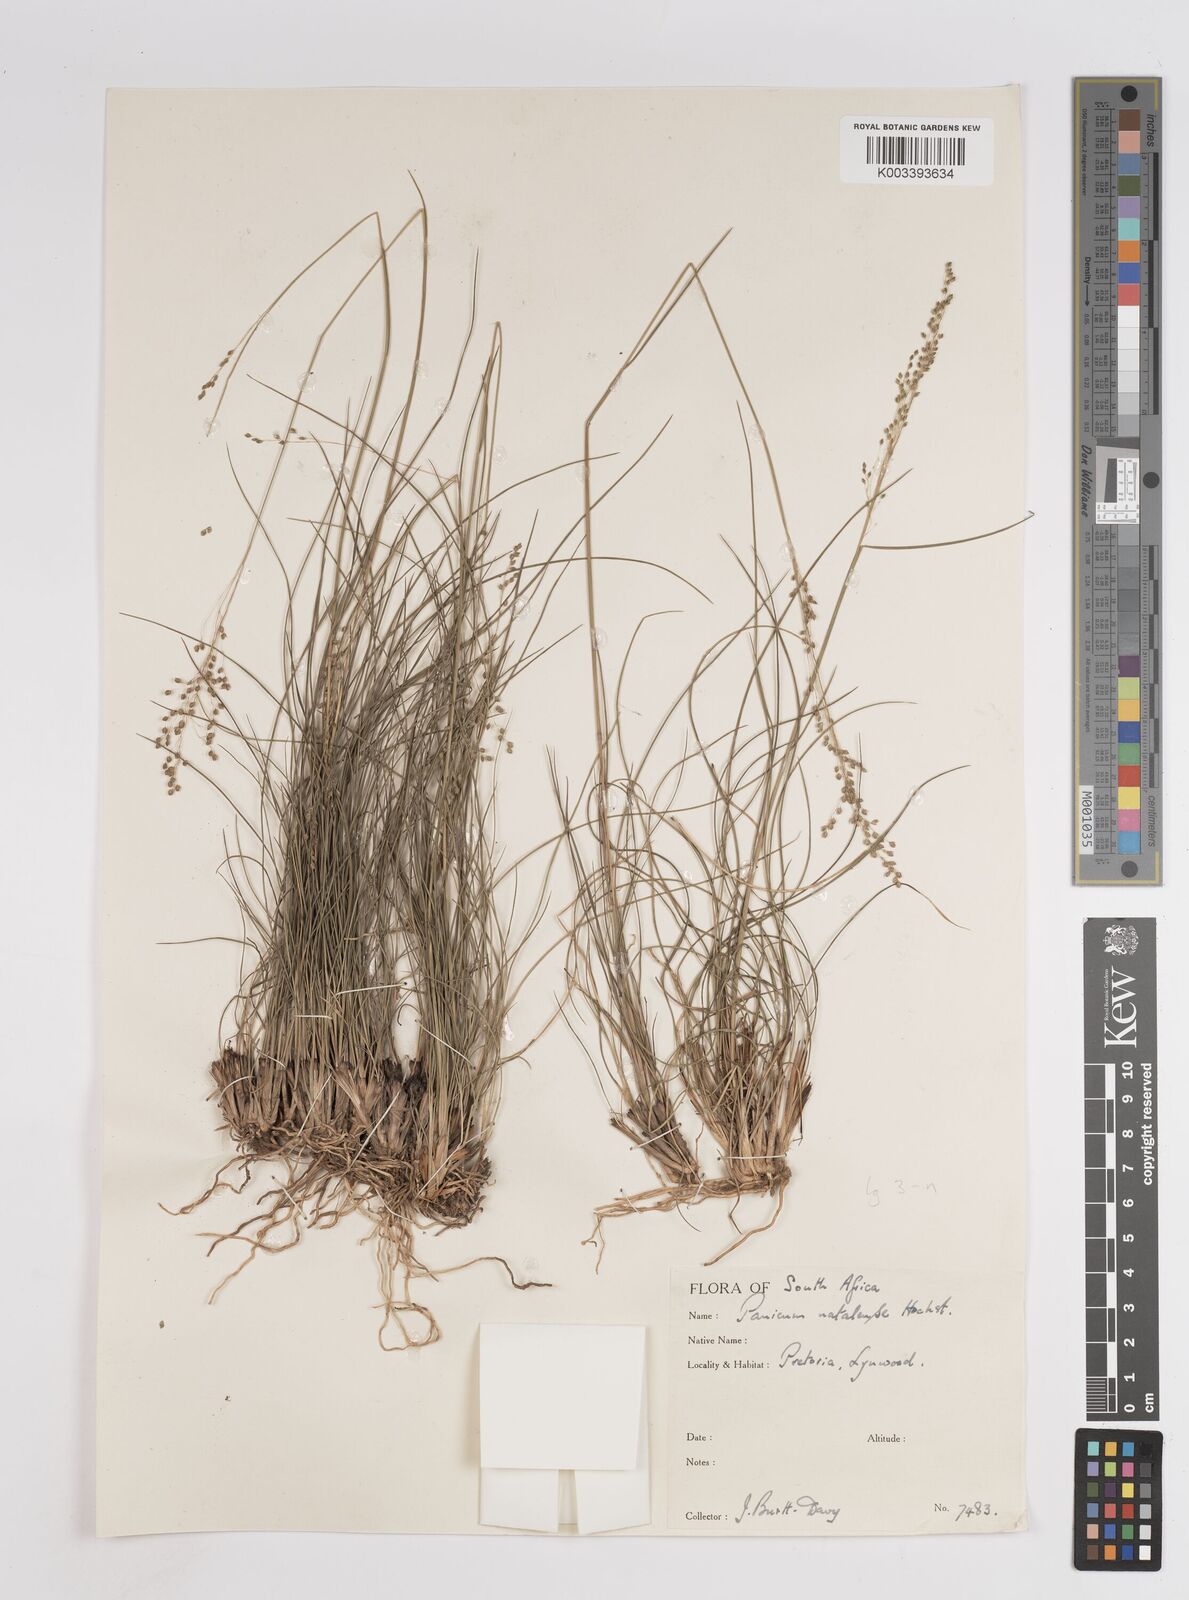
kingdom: Plantae
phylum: Tracheophyta
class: Liliopsida
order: Poales
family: Poaceae
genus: Trichanthecium
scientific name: Trichanthecium natalense
